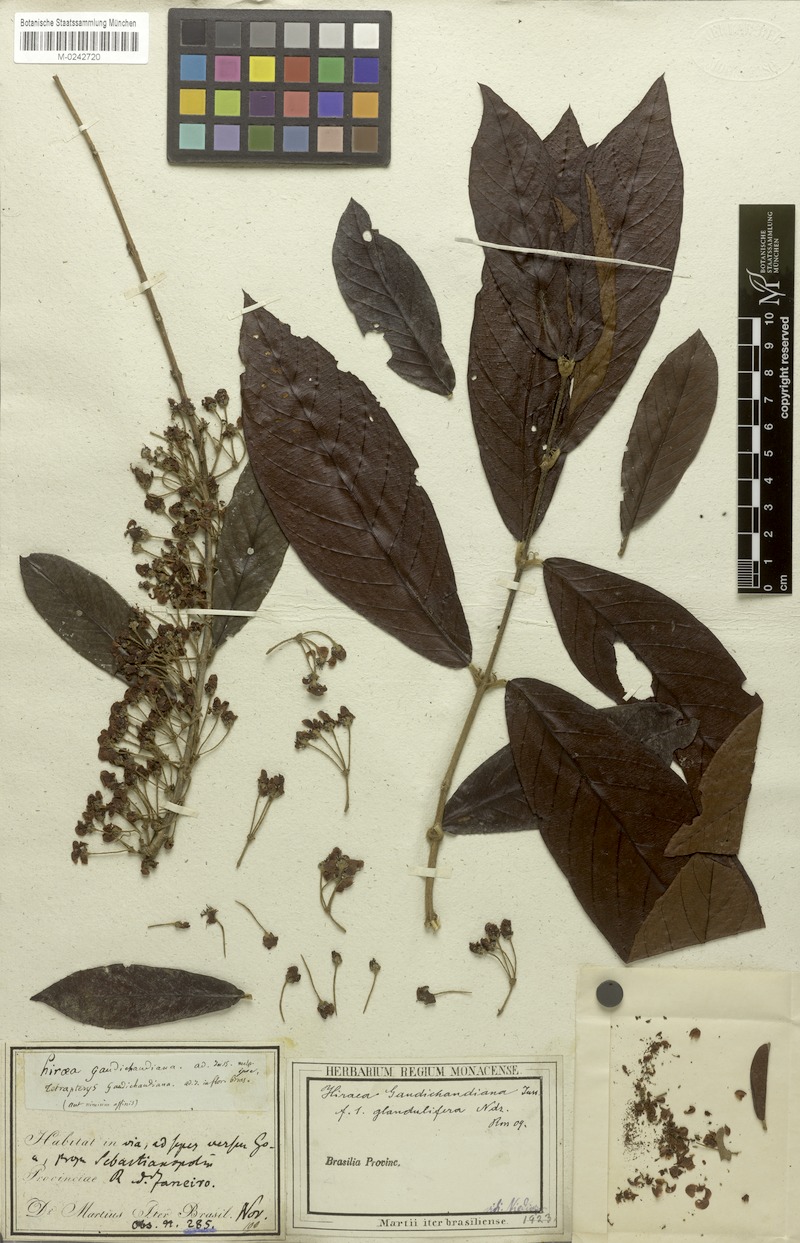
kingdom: Plantae
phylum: Tracheophyta
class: Magnoliopsida
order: Malpighiales
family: Malpighiaceae
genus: Hiraea
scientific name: Hiraea gaudichaudiana
